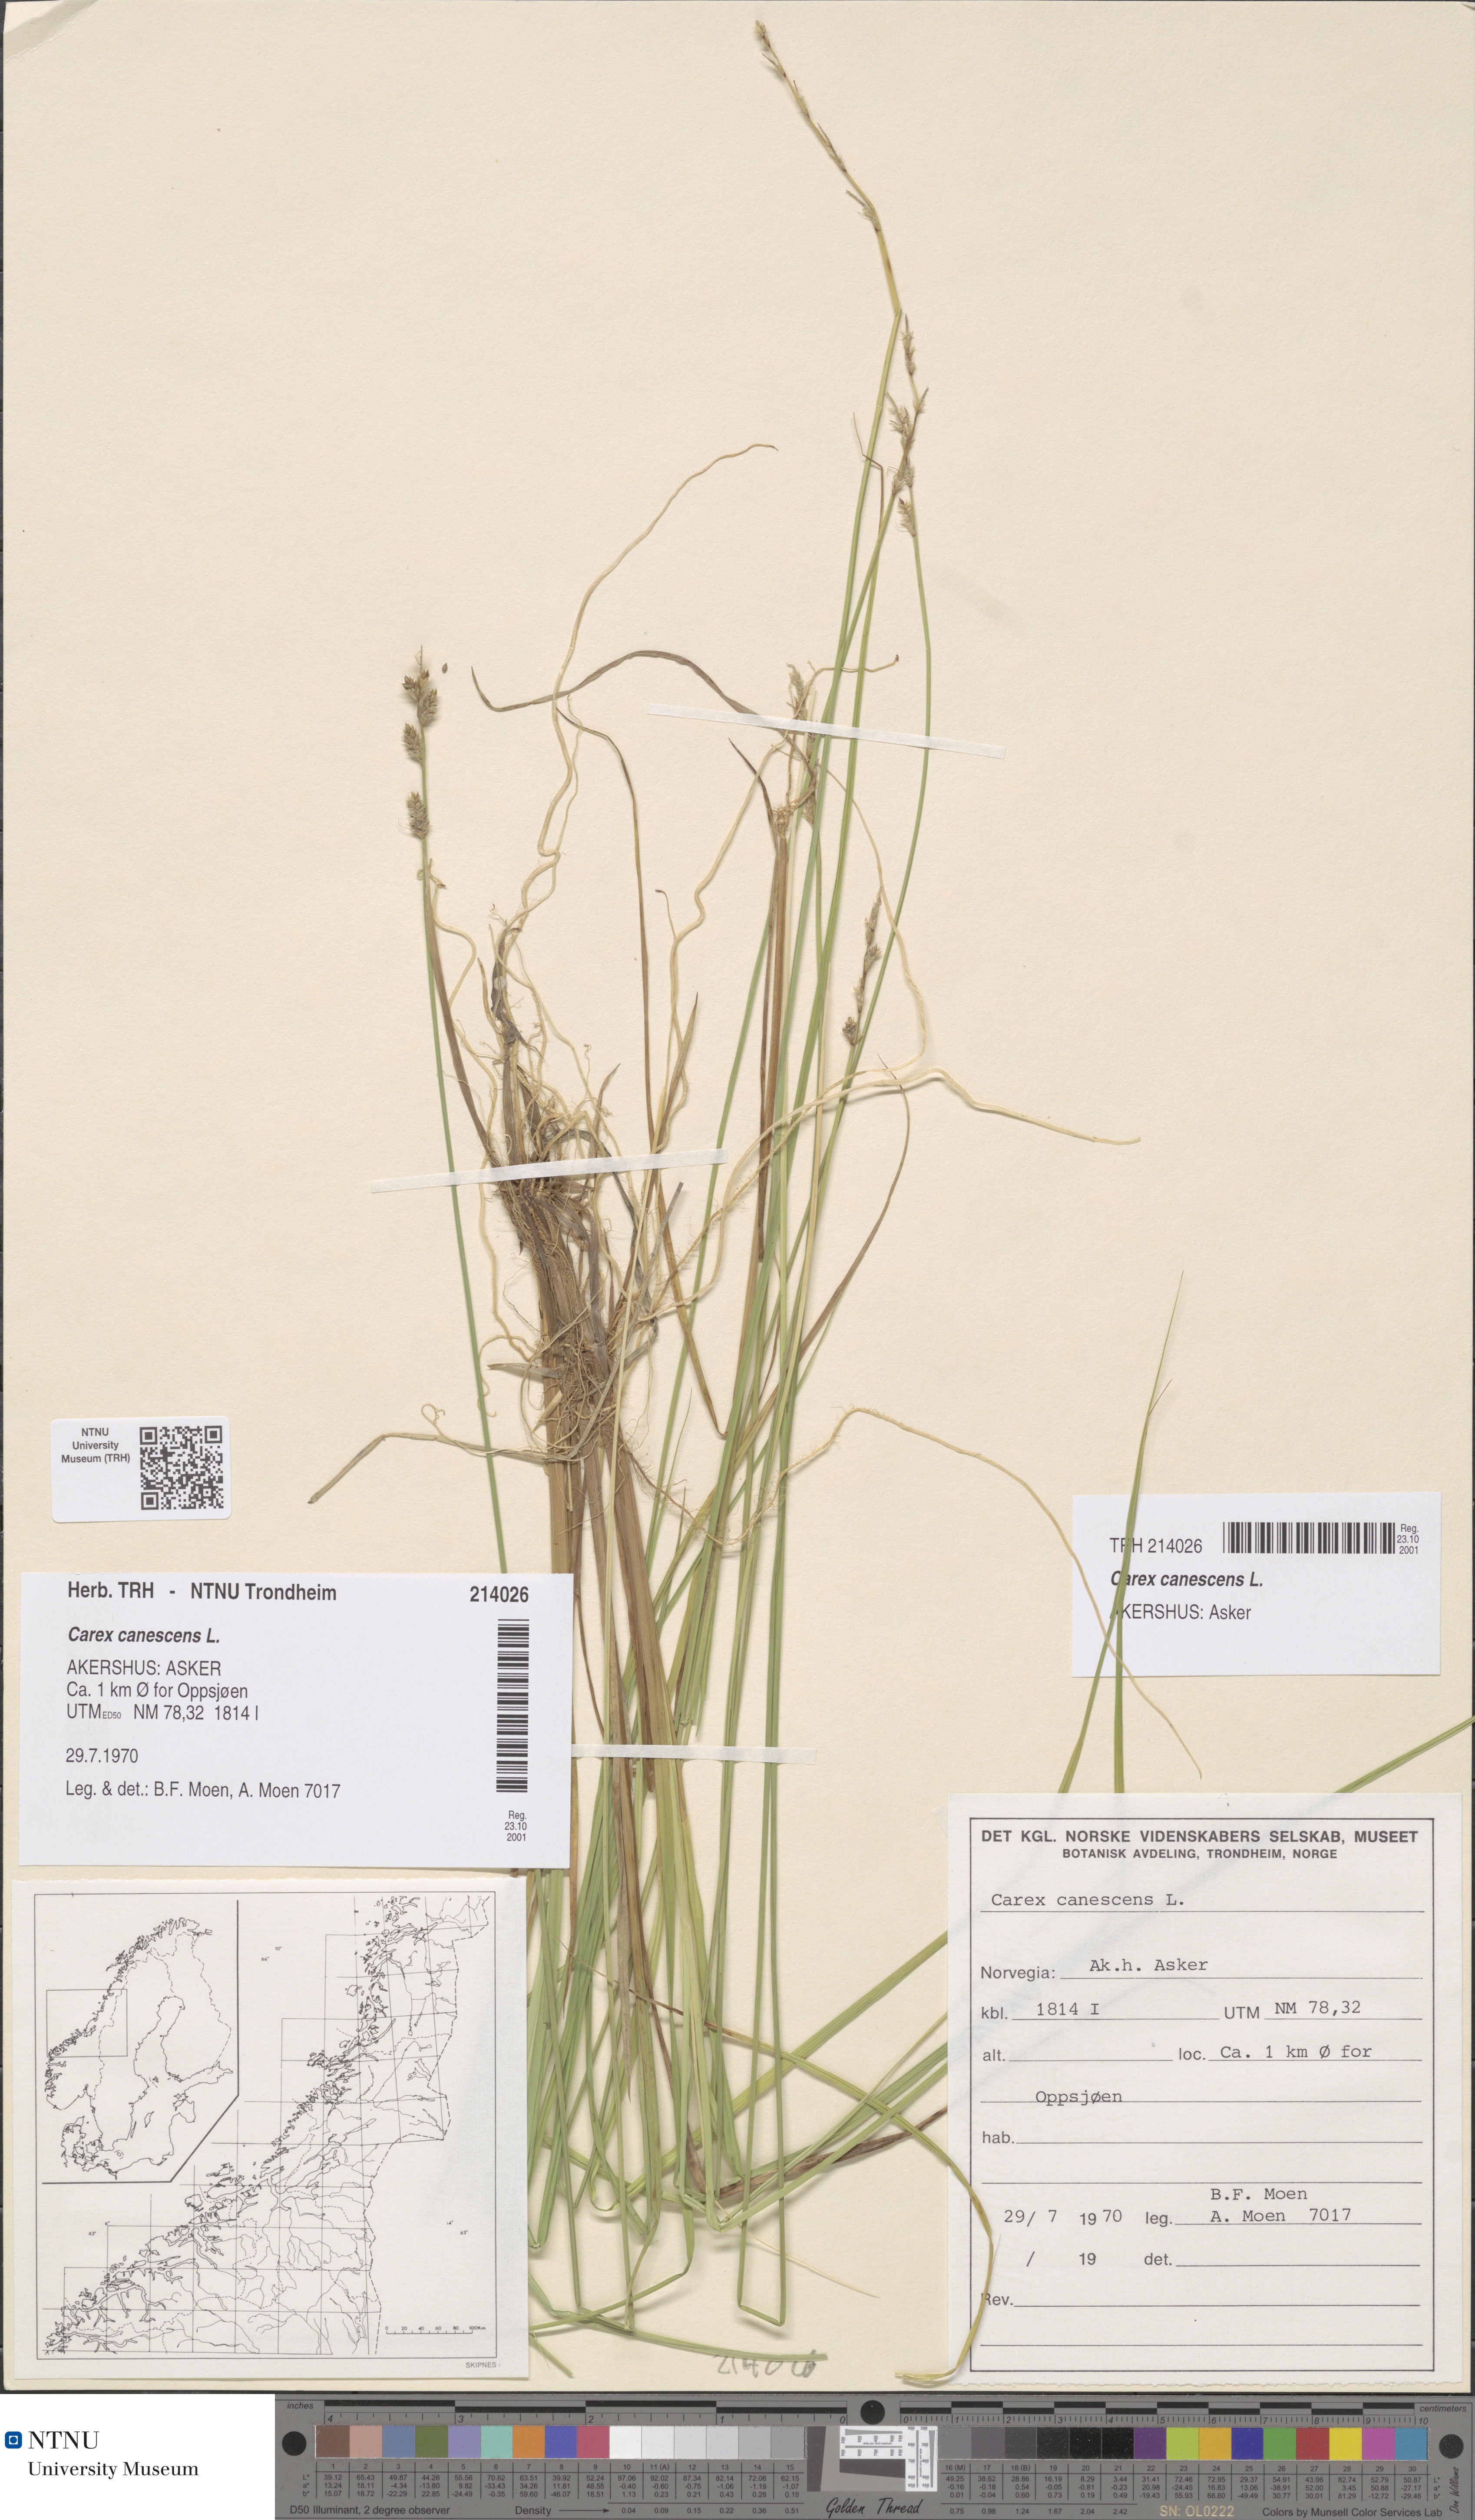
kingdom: Plantae
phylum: Tracheophyta
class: Liliopsida
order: Poales
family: Cyperaceae
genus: Carex
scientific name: Carex canescens
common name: White sedge
